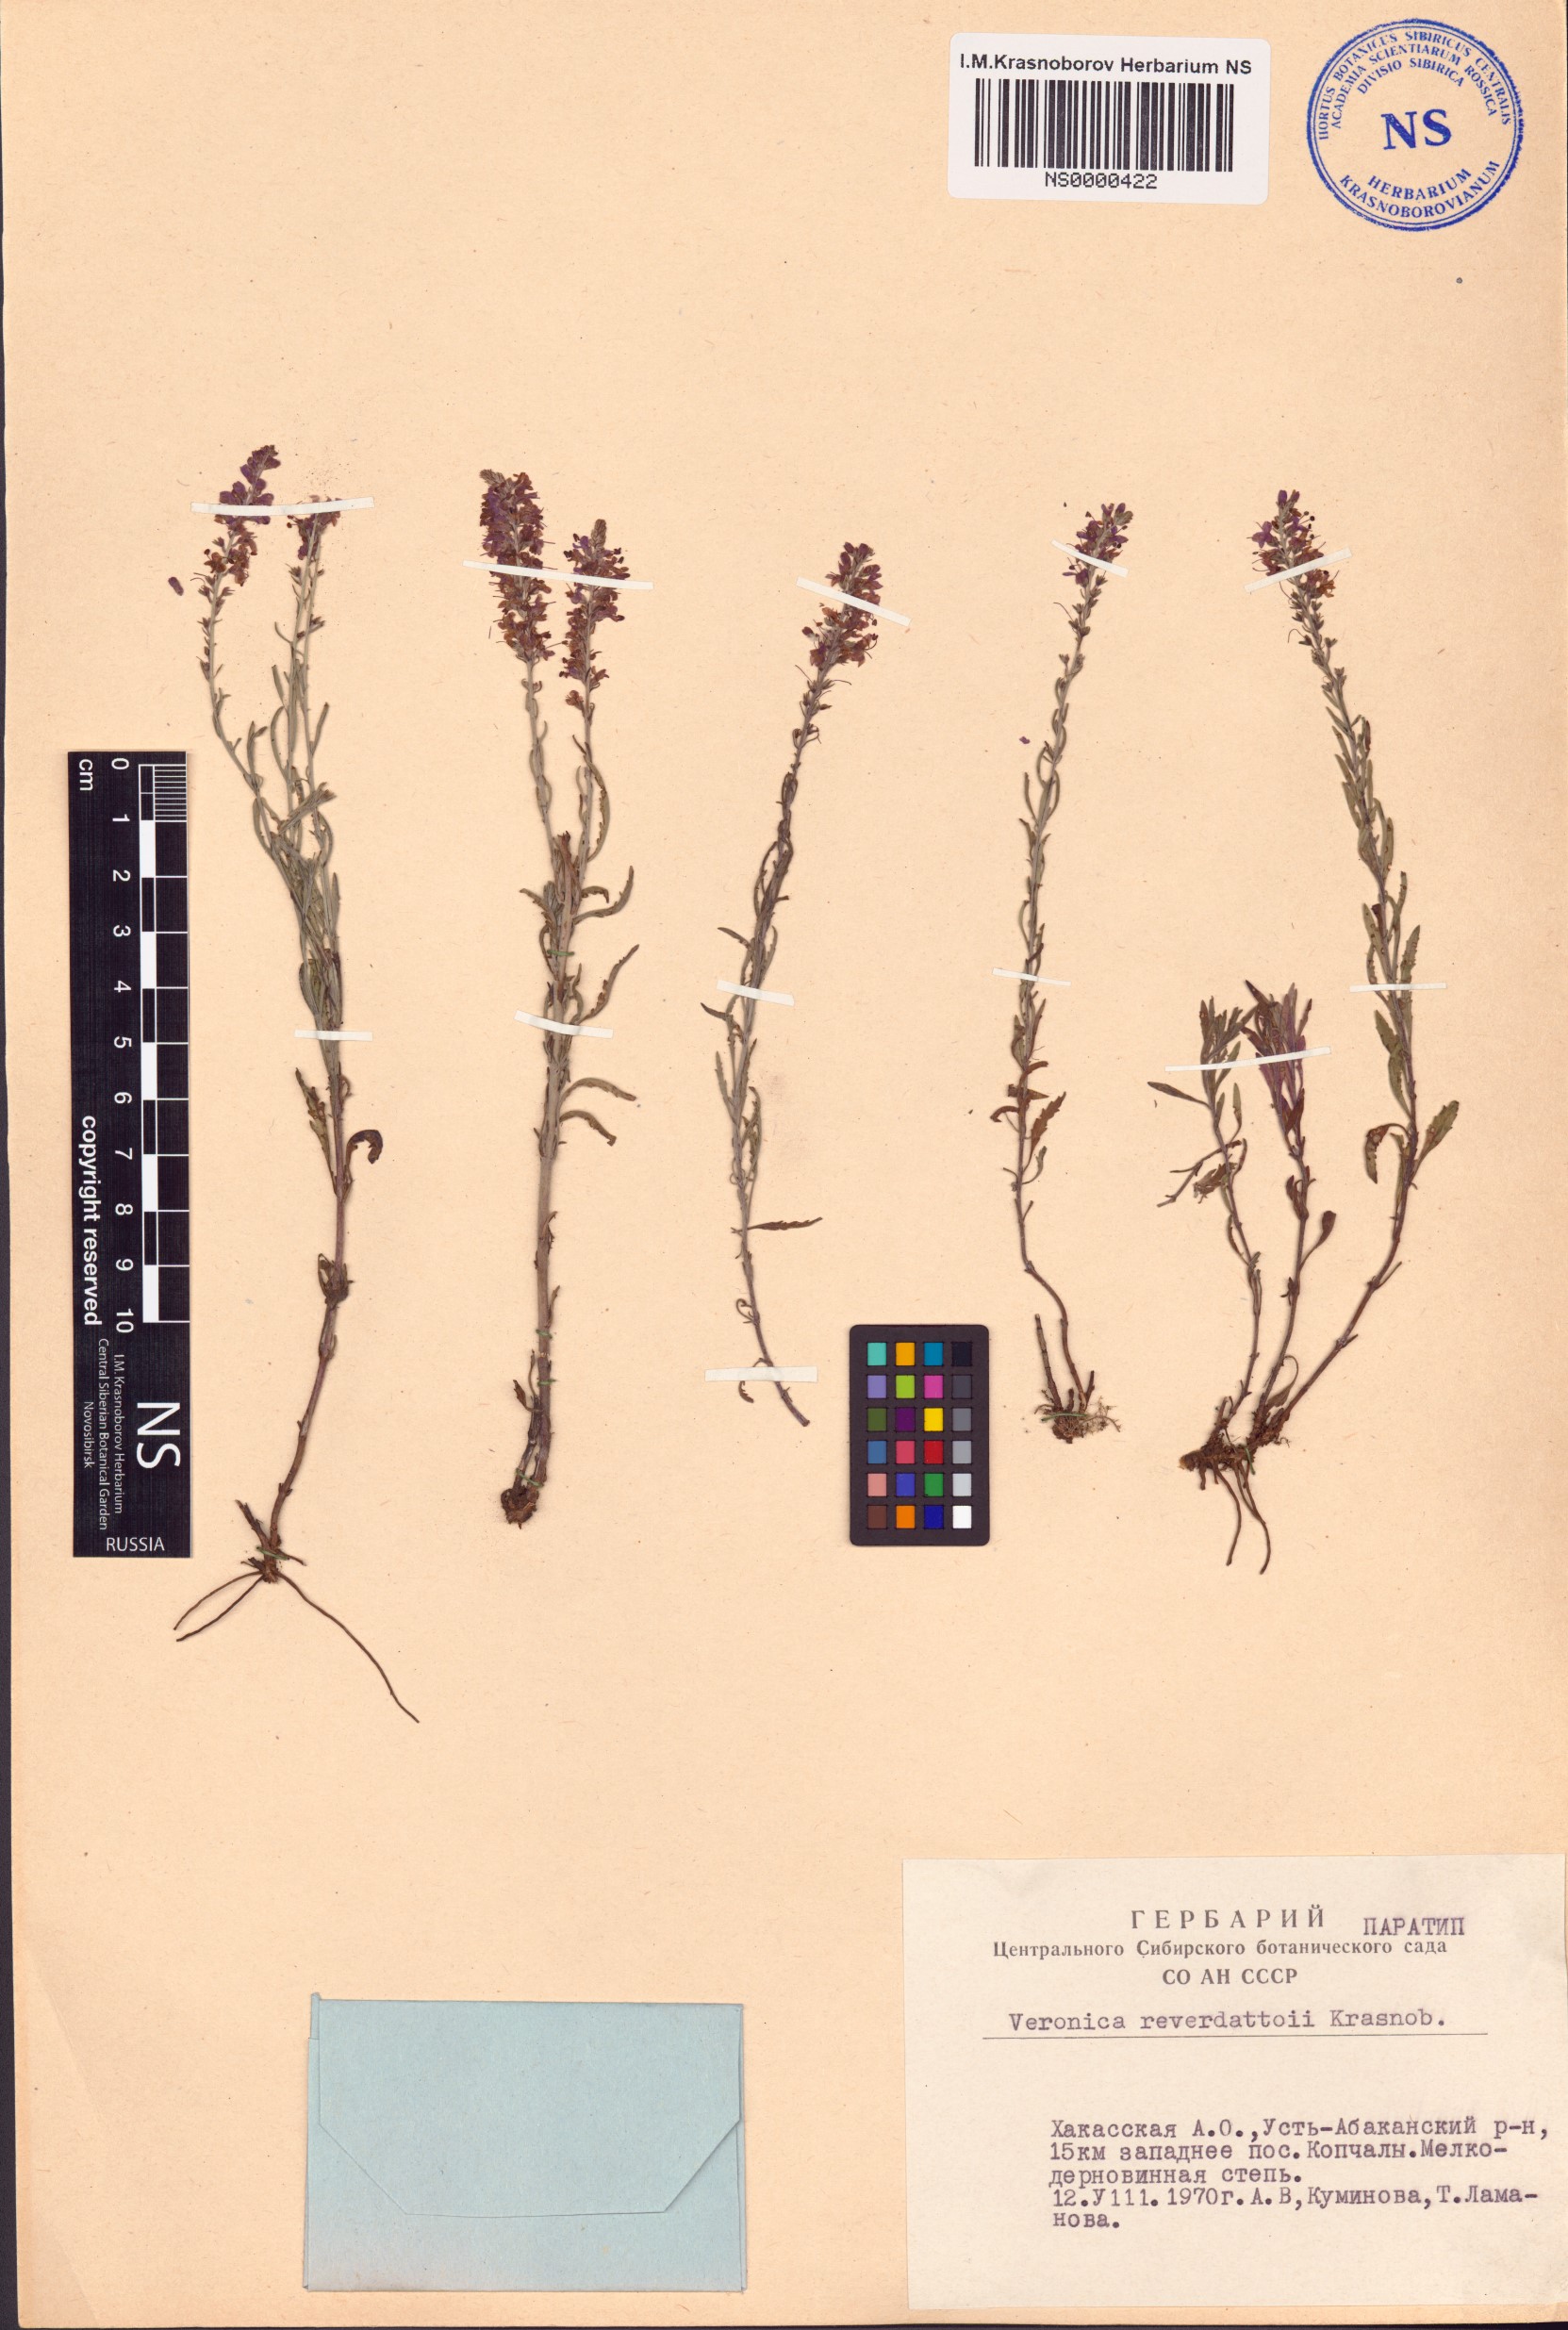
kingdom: Plantae
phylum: Tracheophyta
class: Magnoliopsida
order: Lamiales
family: Plantaginaceae
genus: Veronica
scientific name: Veronica reverdattoi
